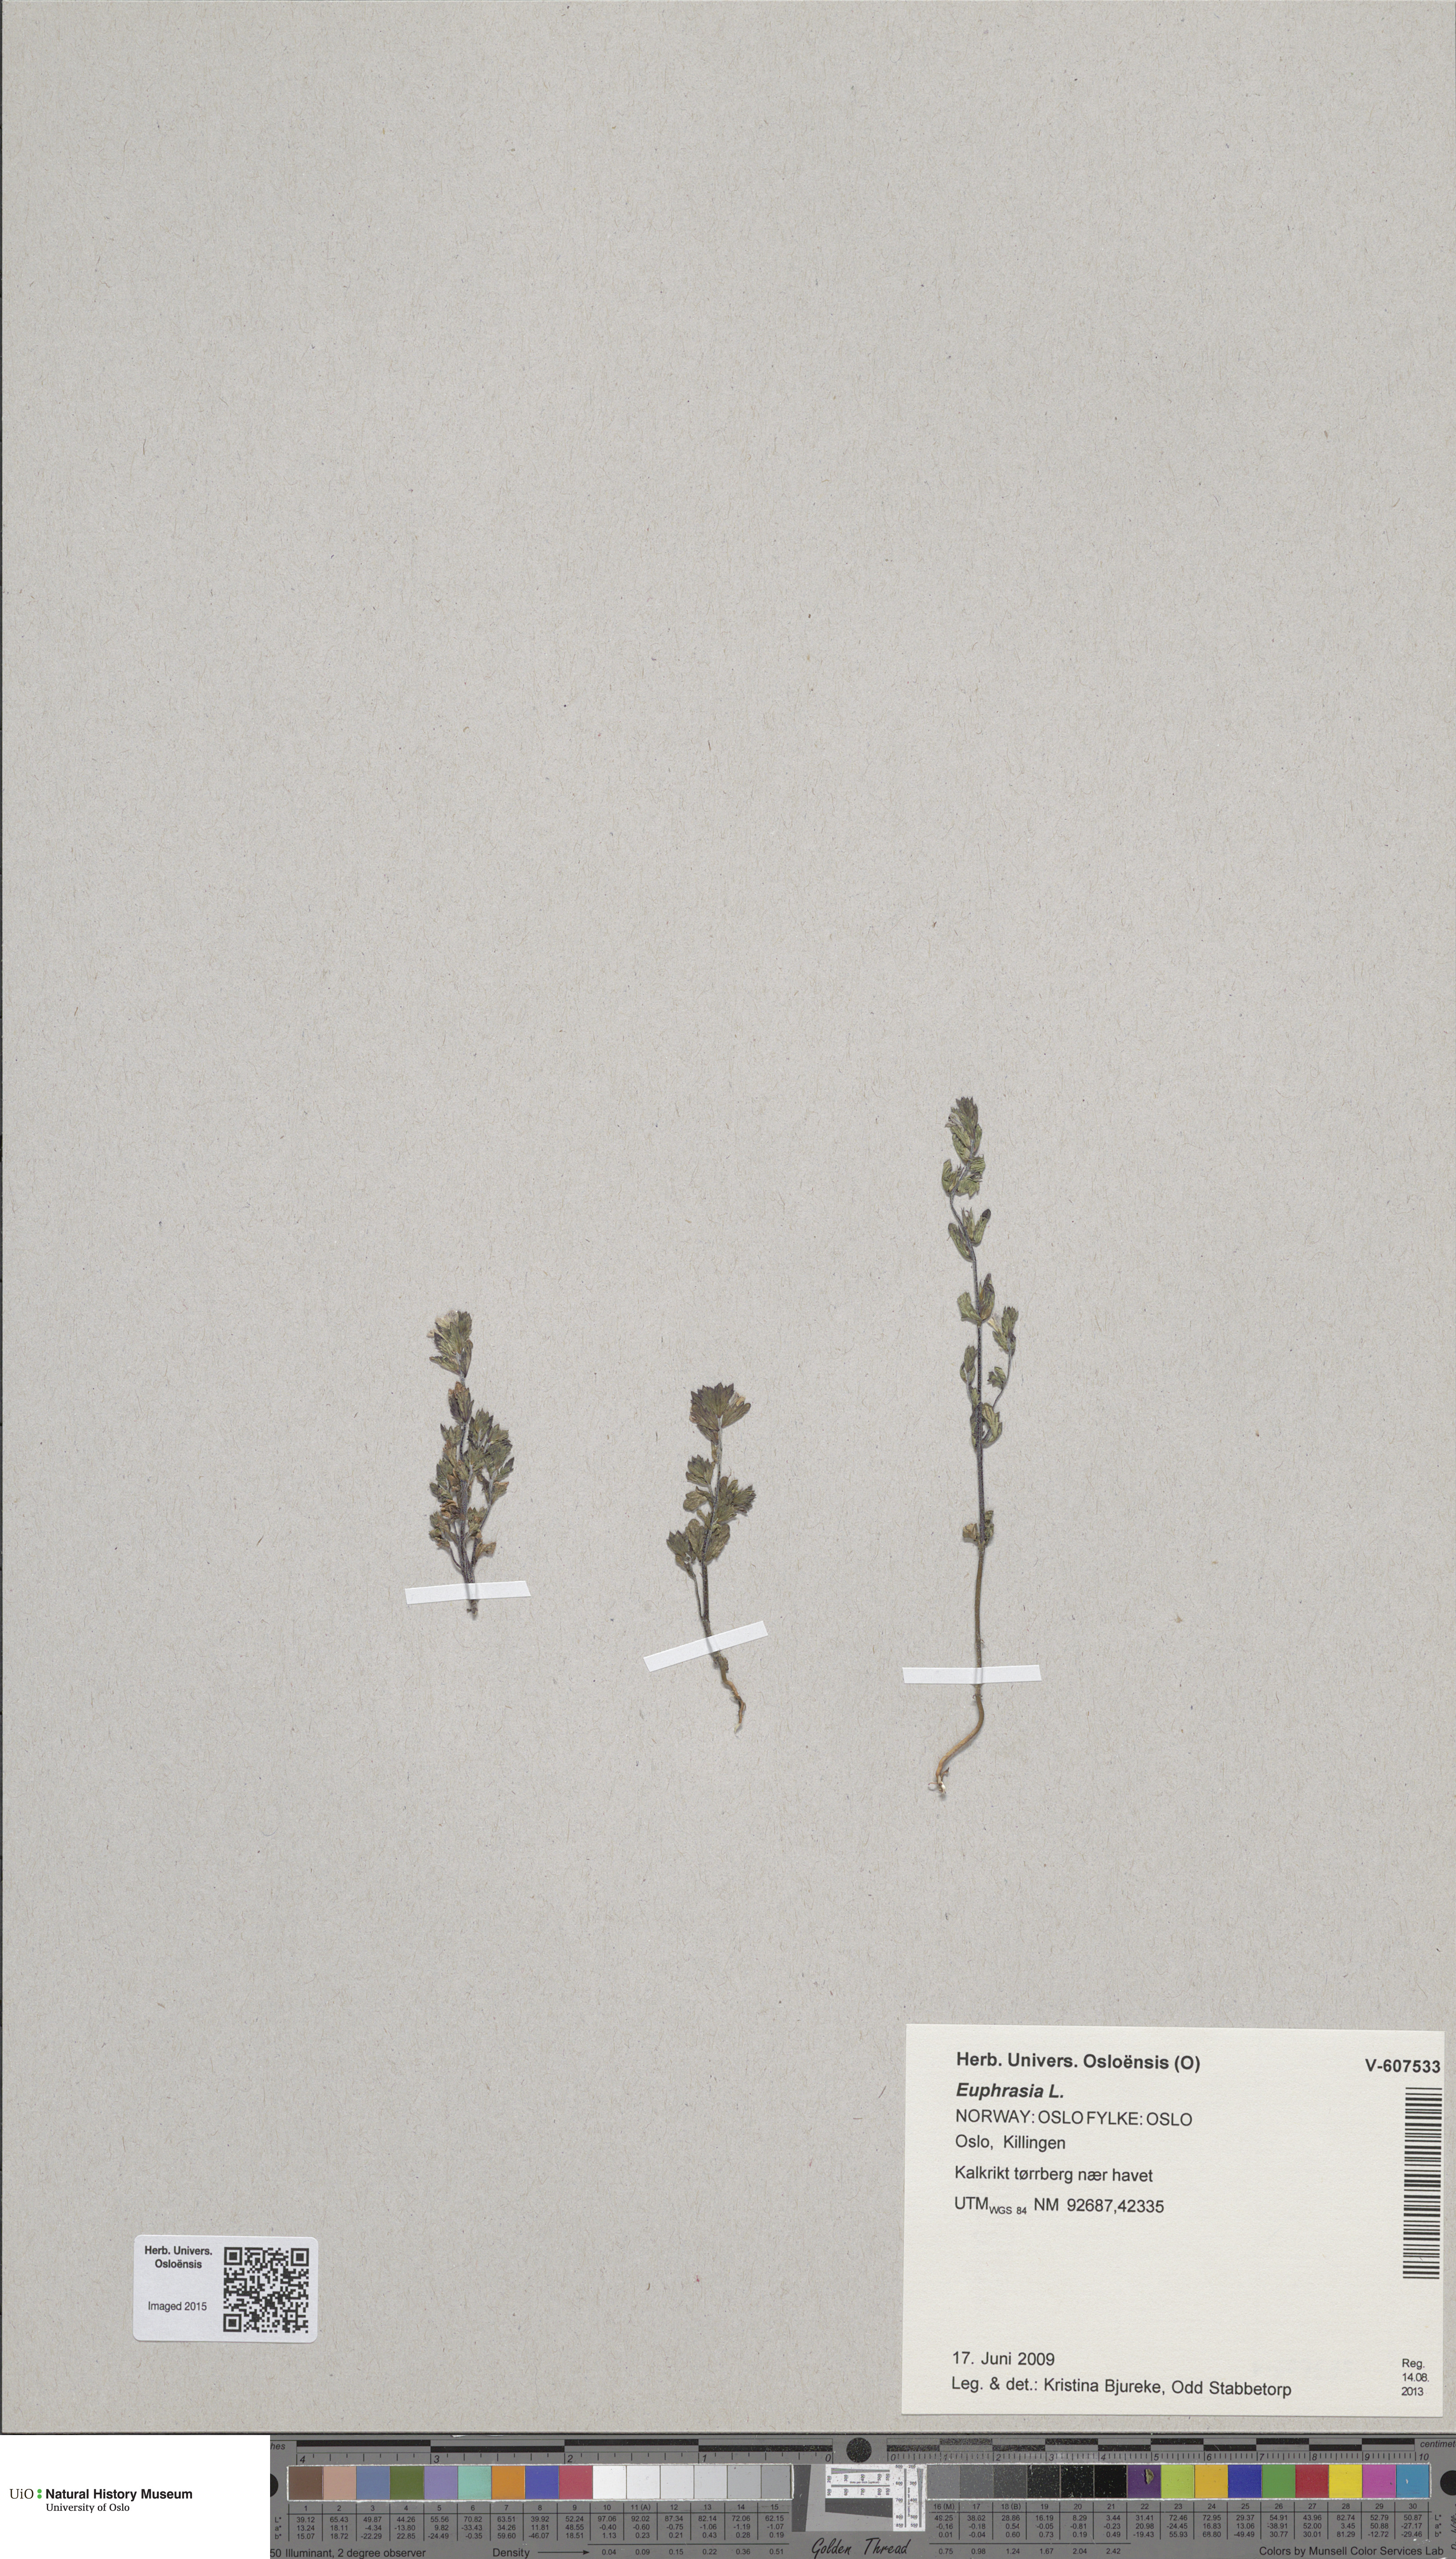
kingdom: Plantae
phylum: Tracheophyta
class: Magnoliopsida
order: Lamiales
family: Orobanchaceae
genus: Euphrasia
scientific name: Euphrasia
